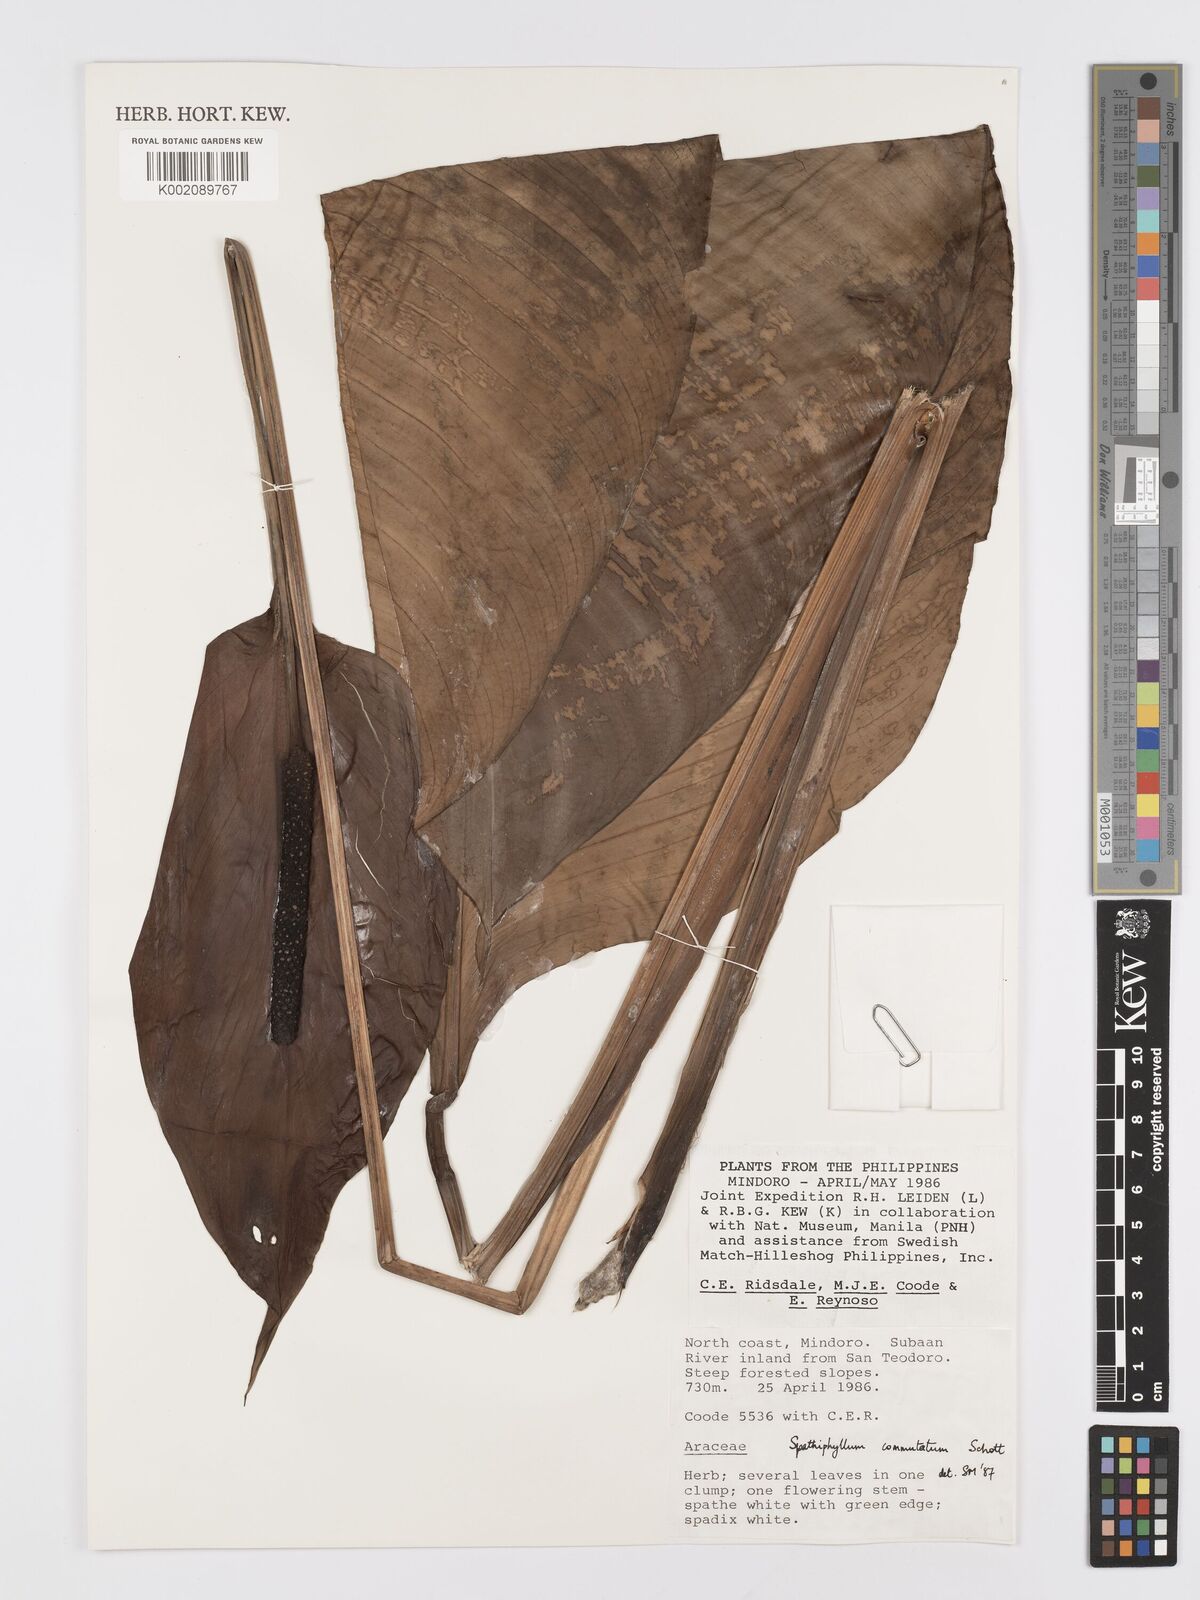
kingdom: Plantae
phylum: Tracheophyta
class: Liliopsida
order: Alismatales
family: Araceae
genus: Spathiphyllum
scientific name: Spathiphyllum commutatum
